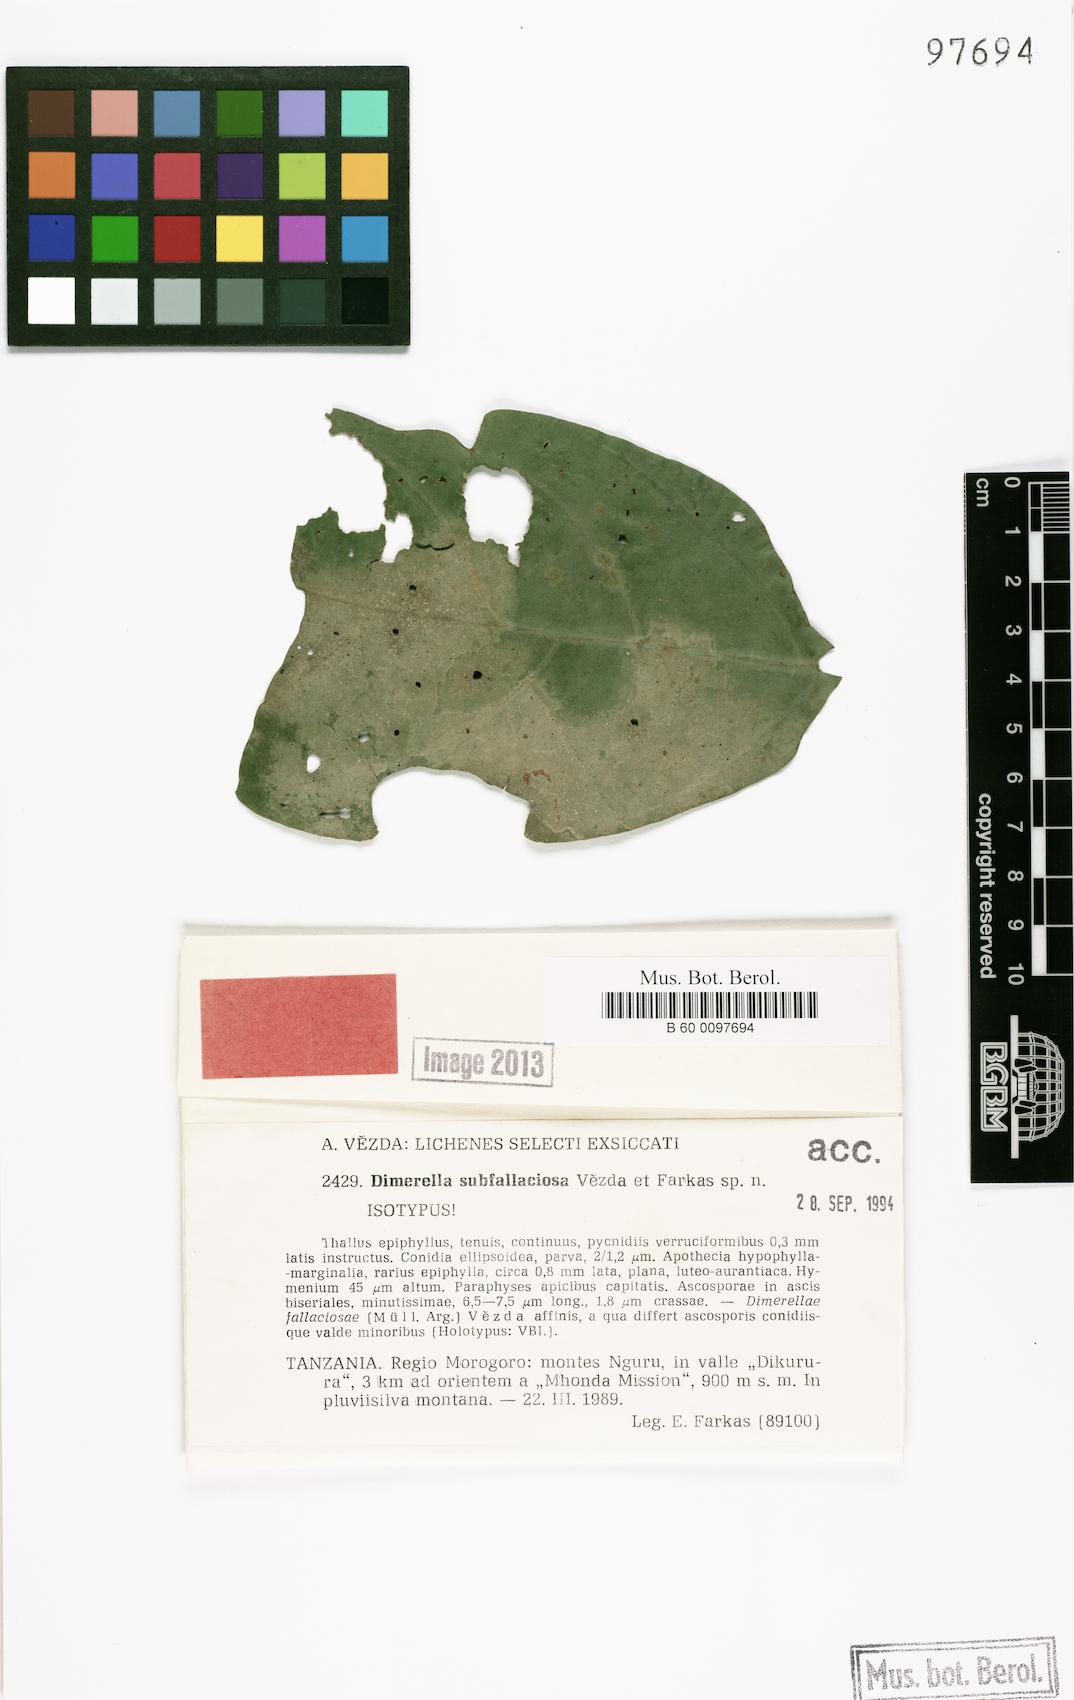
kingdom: Fungi
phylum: Ascomycota
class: Lecanoromycetes
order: Ostropales
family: Coenogoniaceae
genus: Coenogonium
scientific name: Coenogonium subfallaciosum
